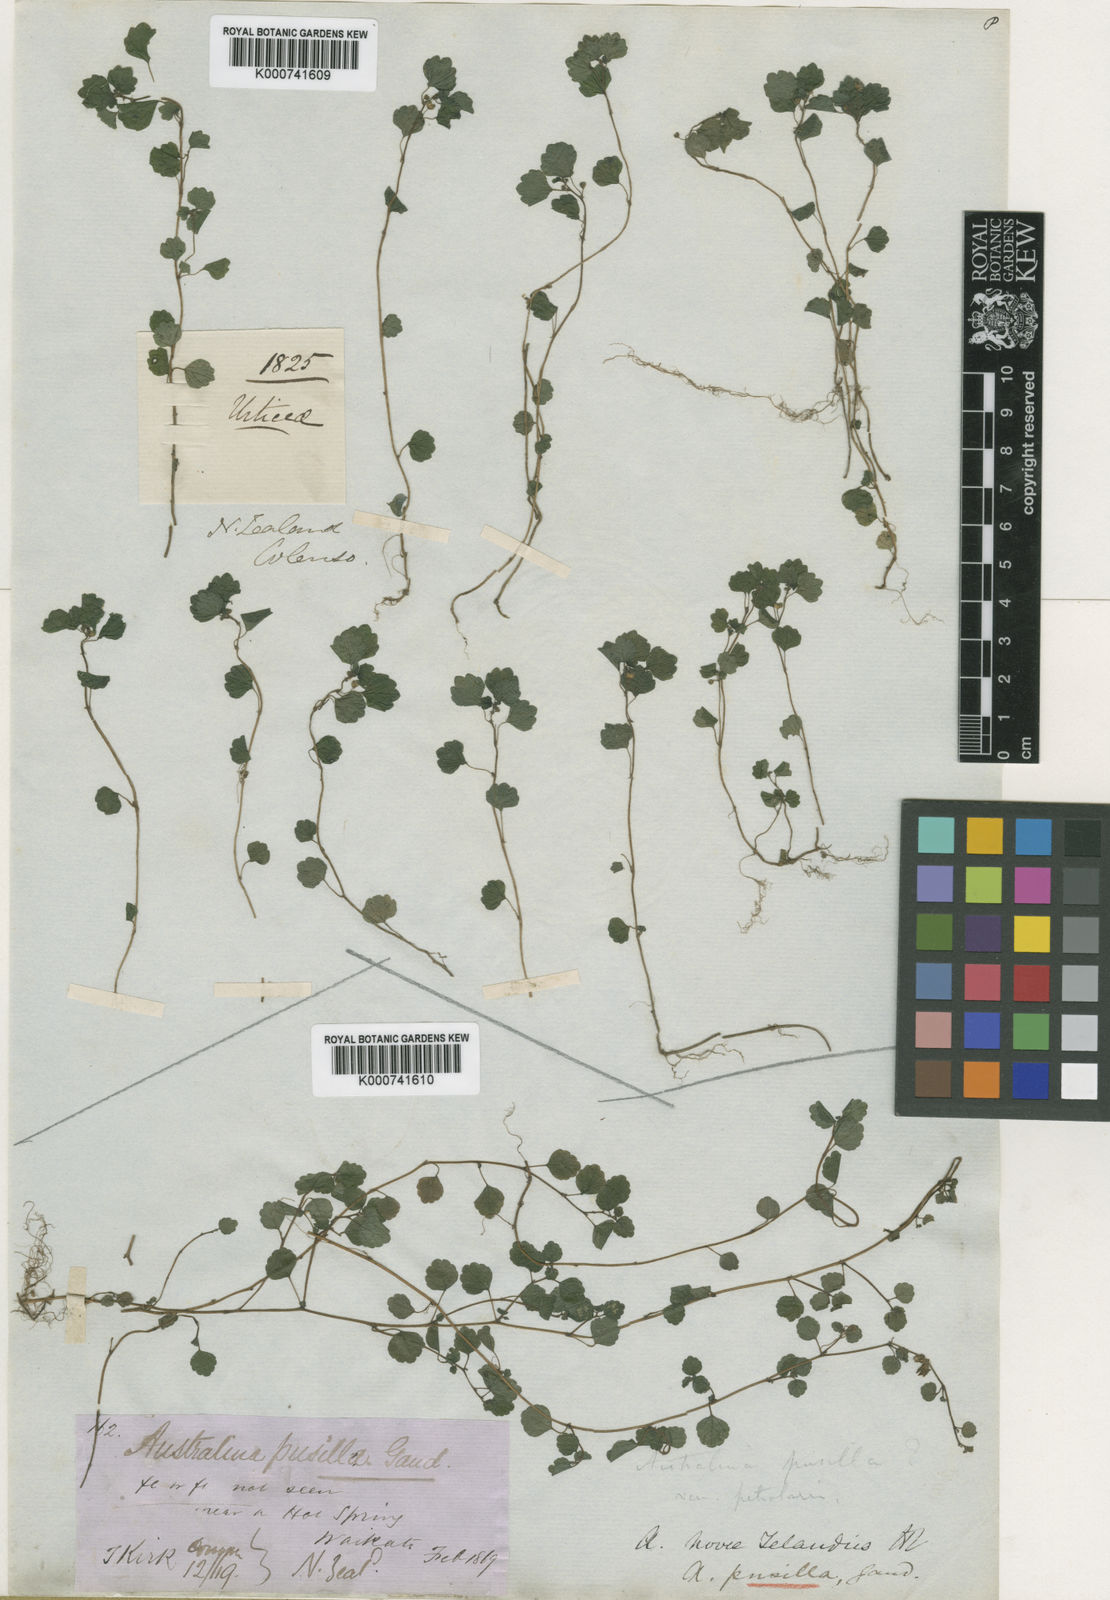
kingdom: Plantae
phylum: Tracheophyta
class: Magnoliopsida
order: Rosales
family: Urticaceae
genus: Australina
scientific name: Australina
